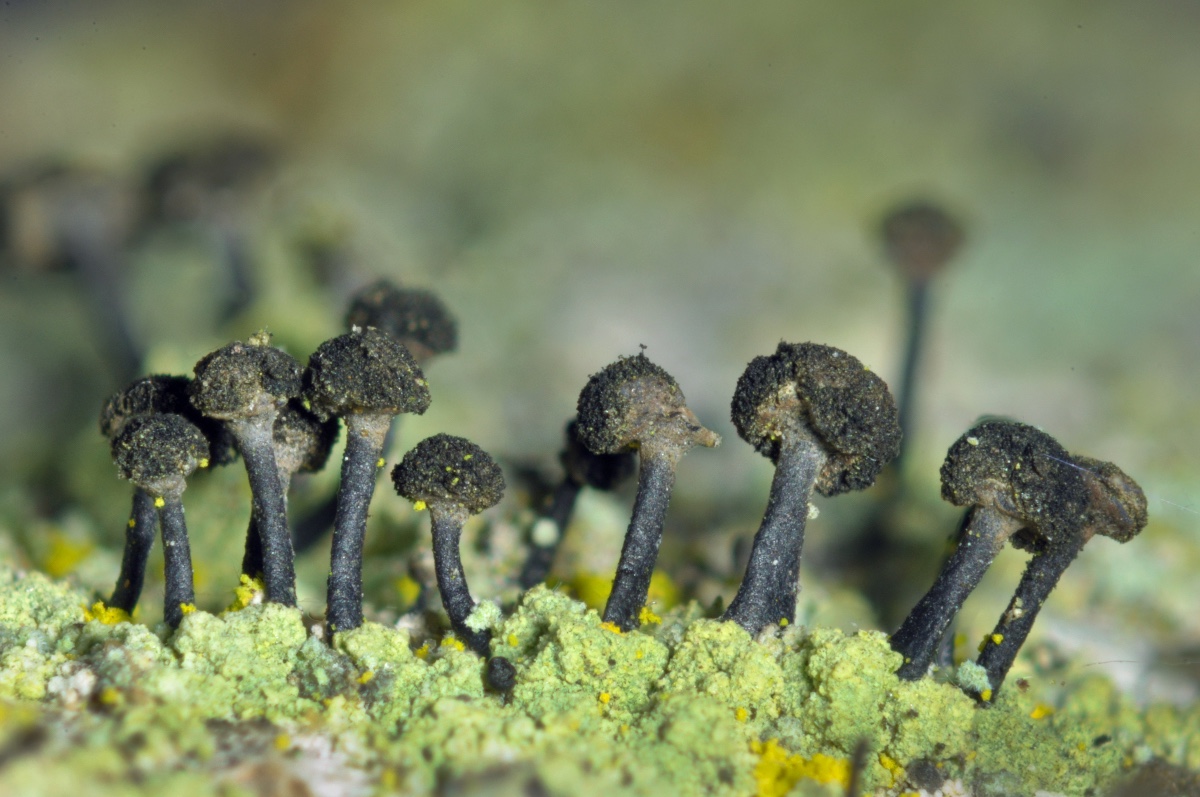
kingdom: Fungi
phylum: Ascomycota
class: Lecanoromycetes
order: Caliciales
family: Caliciaceae
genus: Calicium
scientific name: Calicium viride
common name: gulgrøn nålelav
